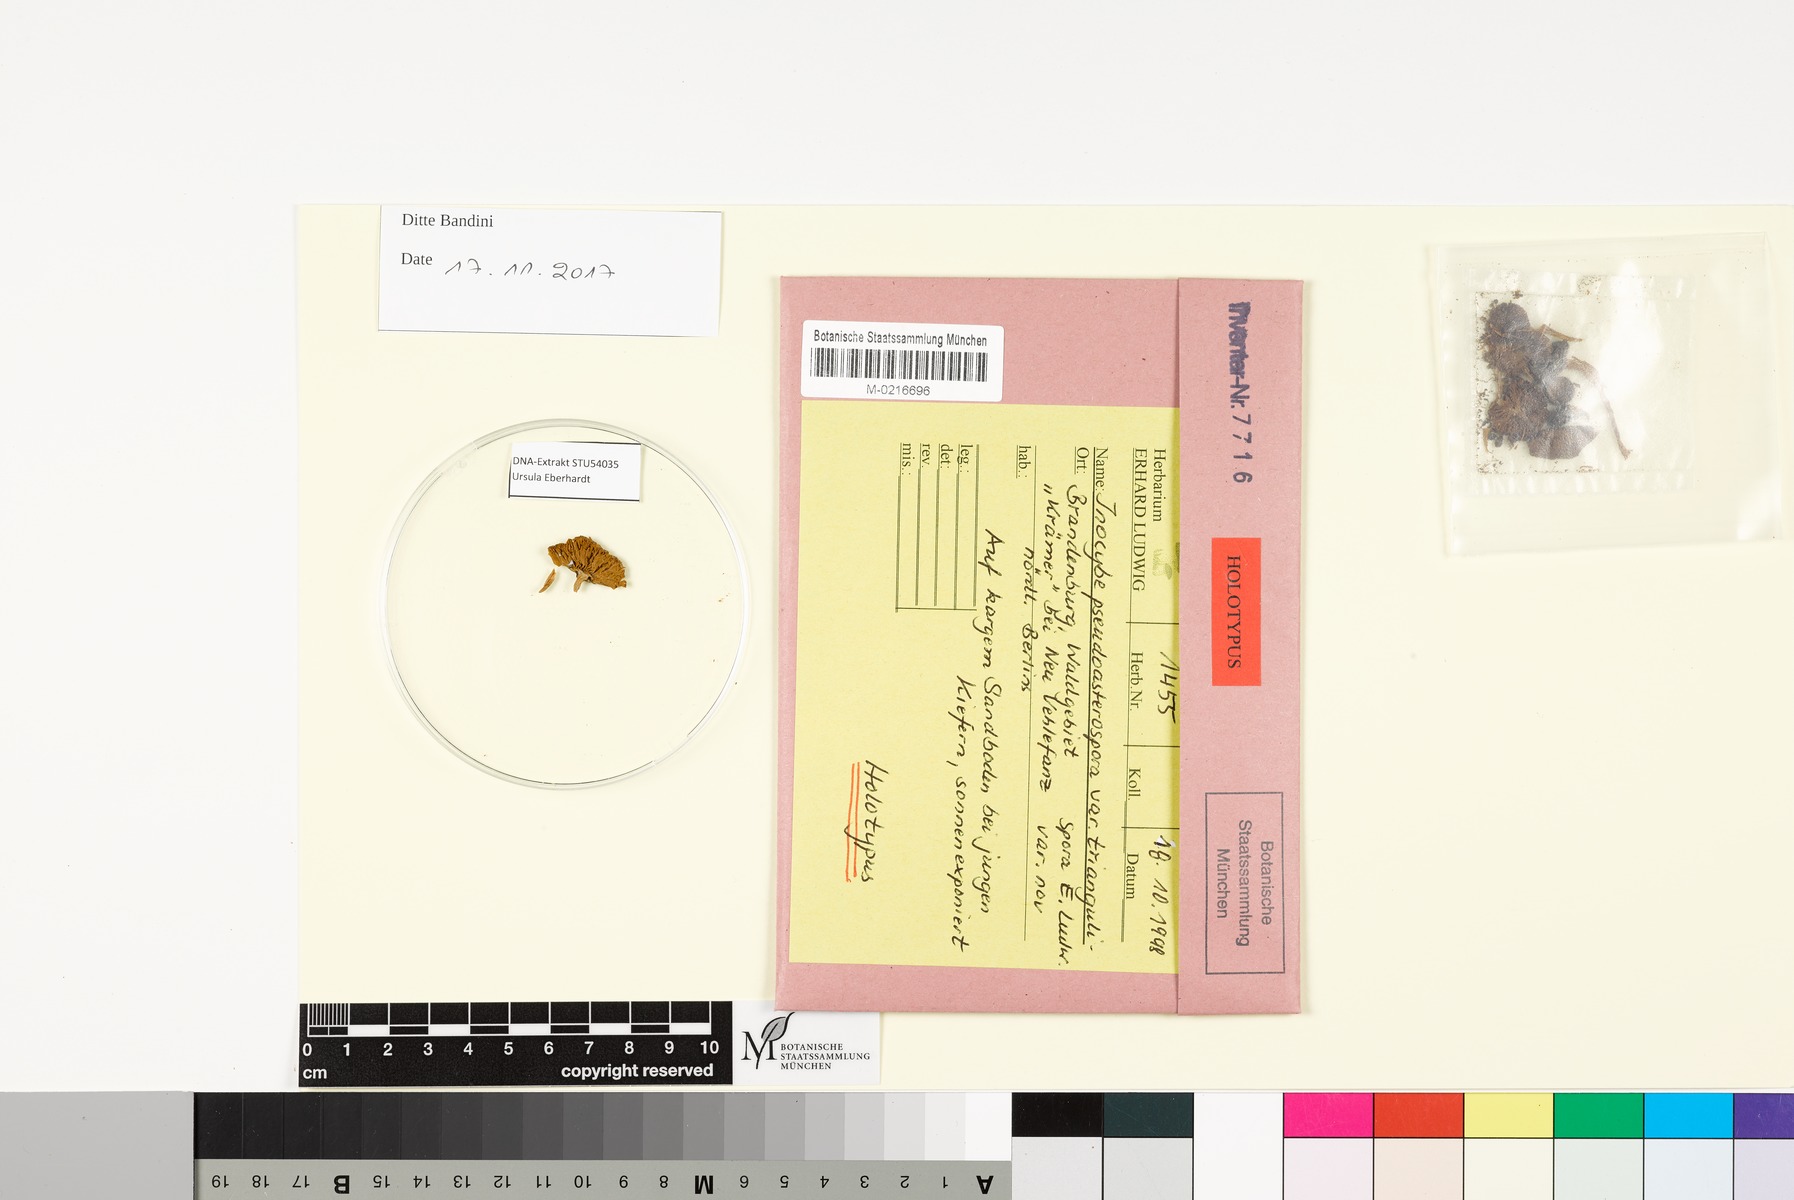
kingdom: Fungi
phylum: Basidiomycota
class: Agaricomycetes
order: Agaricales
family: Inocybaceae
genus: Inocybe
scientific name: Inocybe pseudoasterospora
